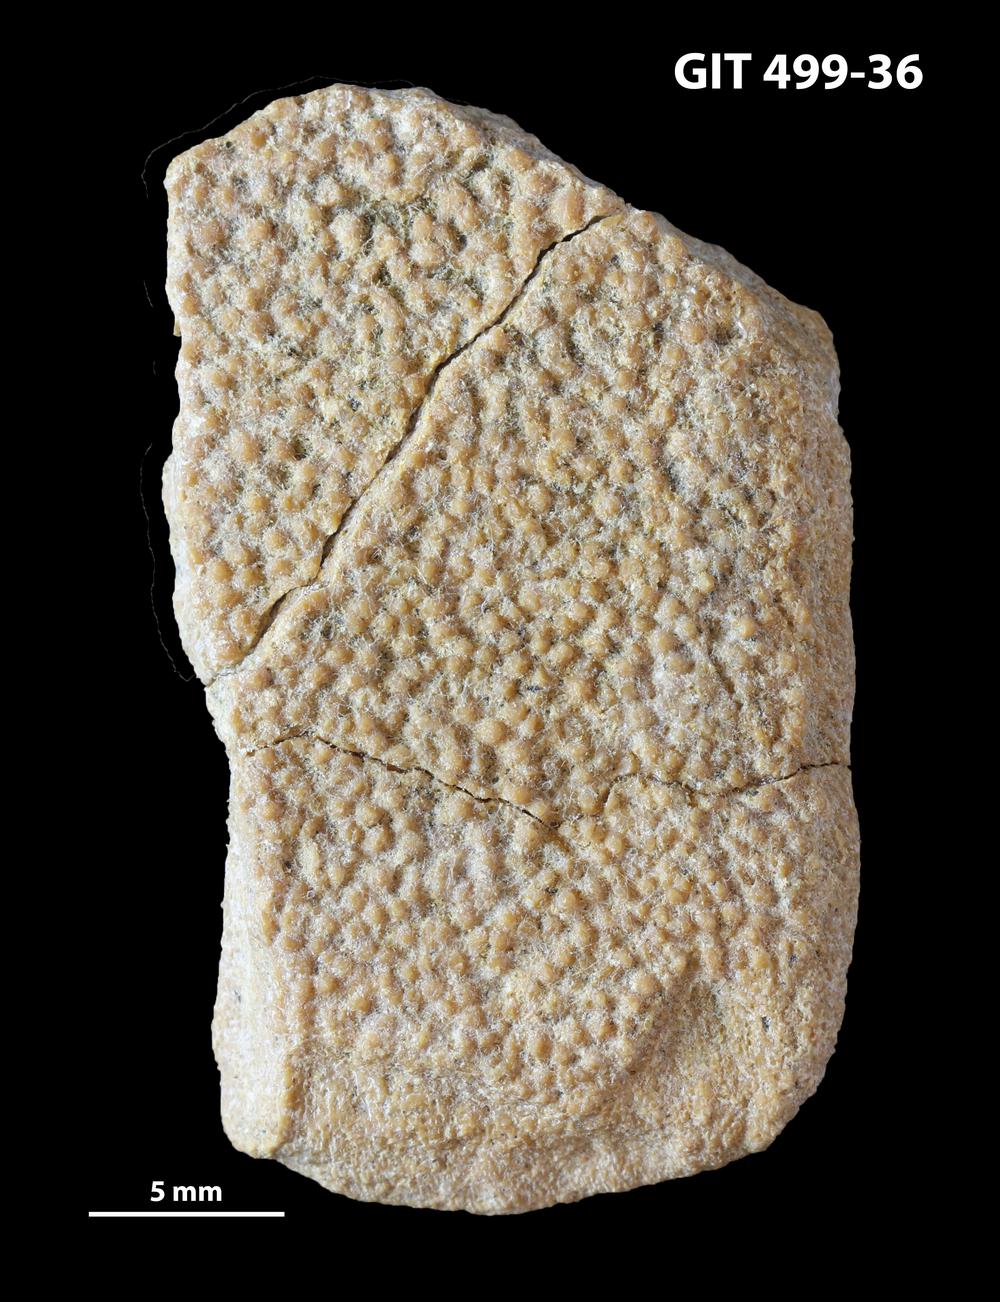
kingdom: Animalia
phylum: Chordata
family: Holoptychiidae
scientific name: Holoptychiidae
